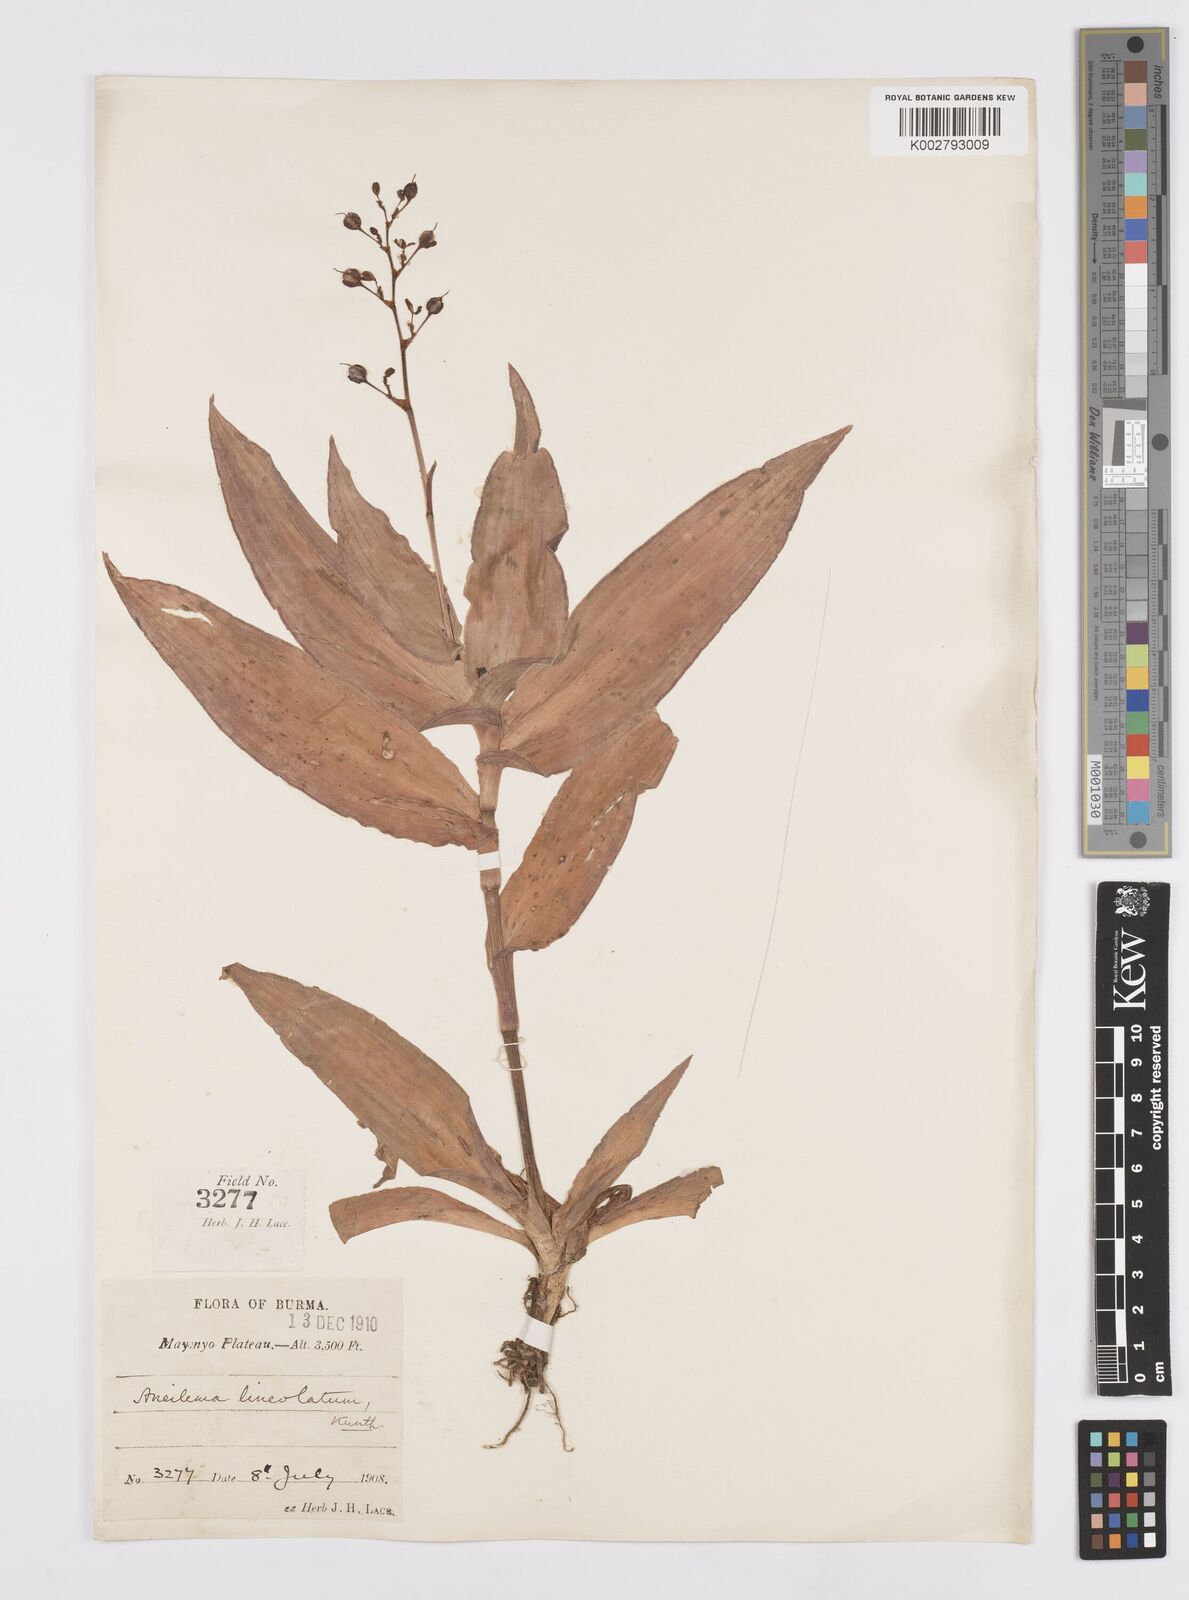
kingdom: Plantae
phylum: Tracheophyta
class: Liliopsida
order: Commelinales
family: Commelinaceae
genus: Murdannia
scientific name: Murdannia
